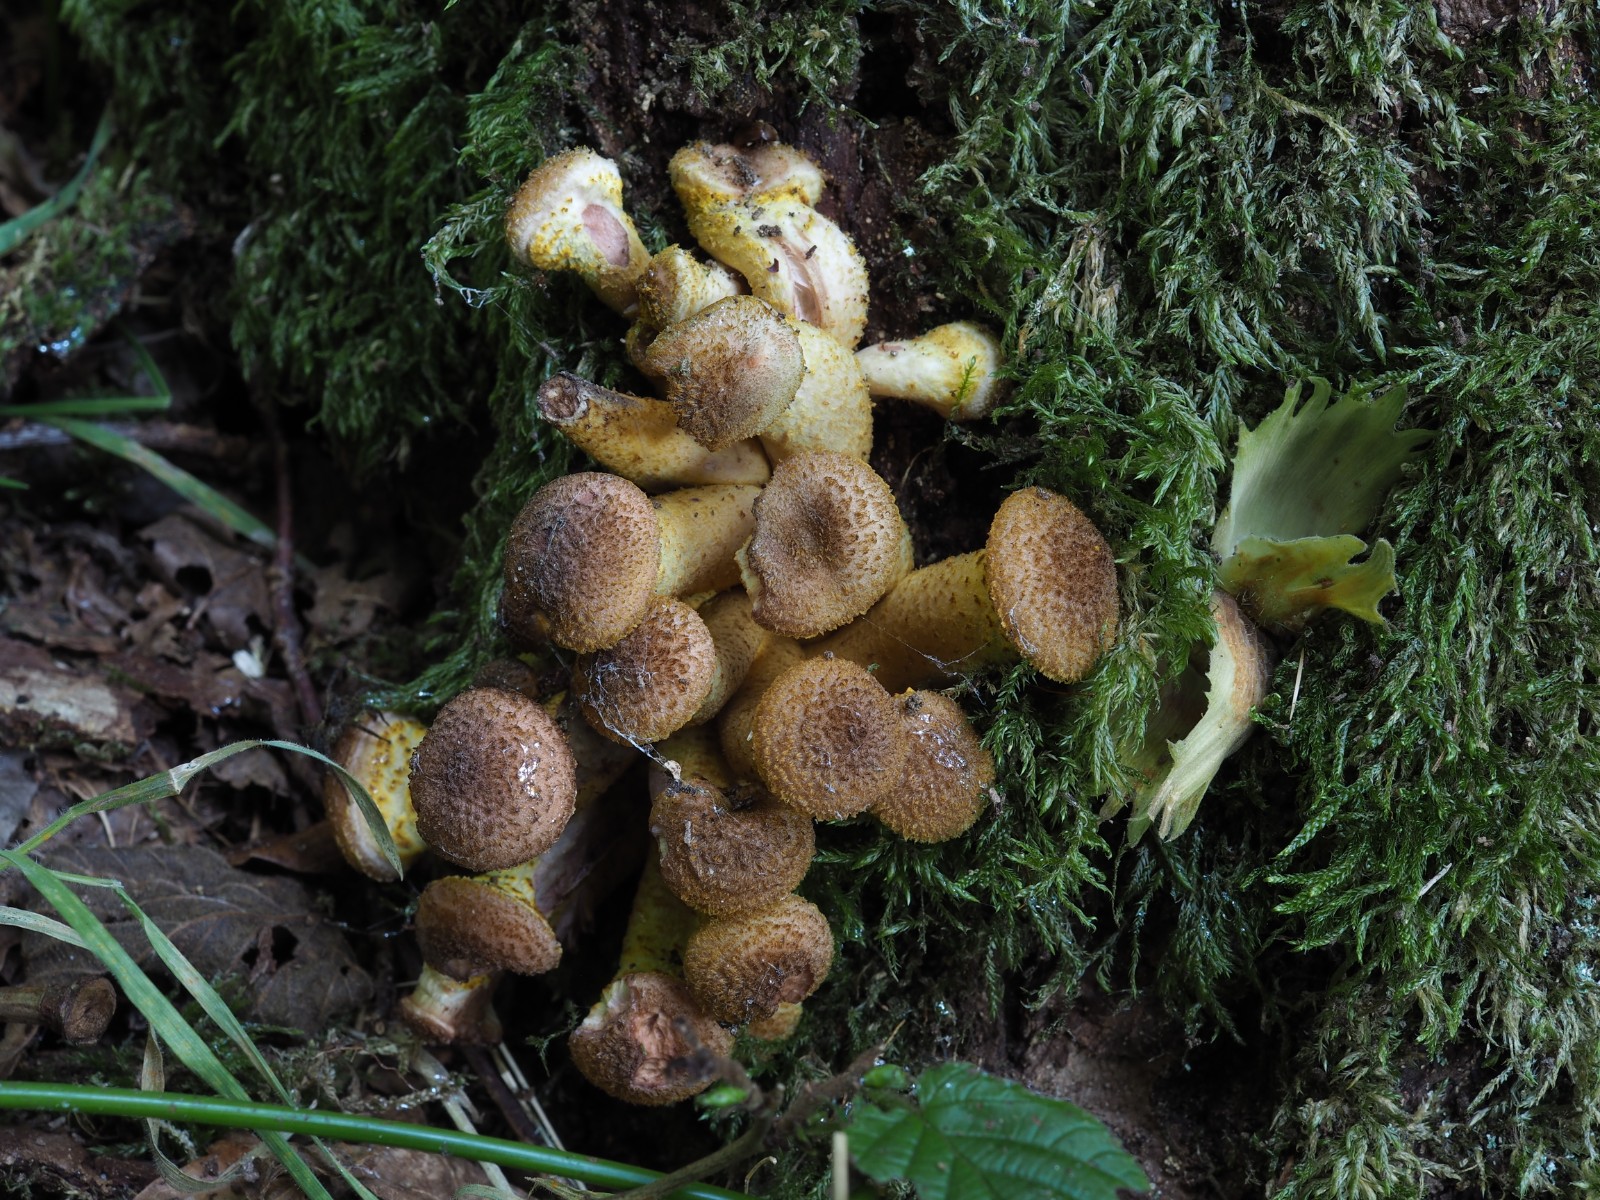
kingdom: Fungi
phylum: Basidiomycota
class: Agaricomycetes
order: Agaricales
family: Physalacriaceae
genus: Armillaria
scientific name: Armillaria lutea
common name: køllestokket honningsvamp
